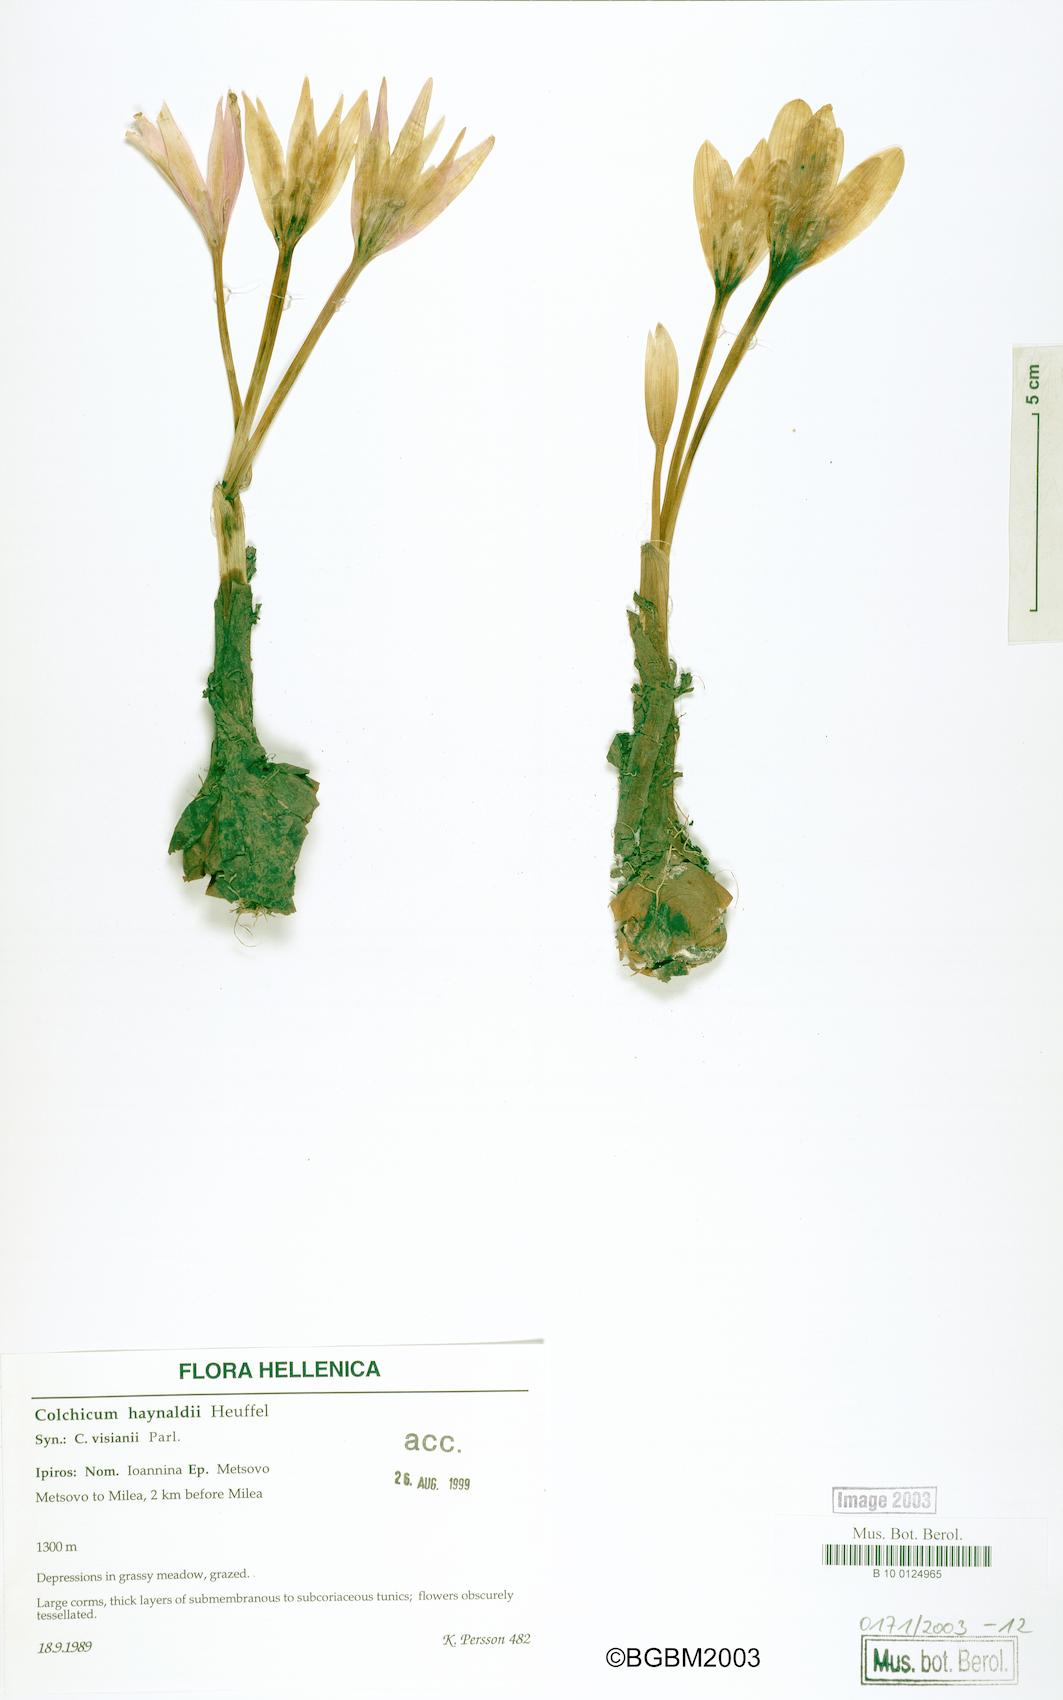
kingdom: Plantae
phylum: Tracheophyta
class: Liliopsida
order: Liliales
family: Colchicaceae
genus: Colchicum
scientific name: Colchicum haynaldii
